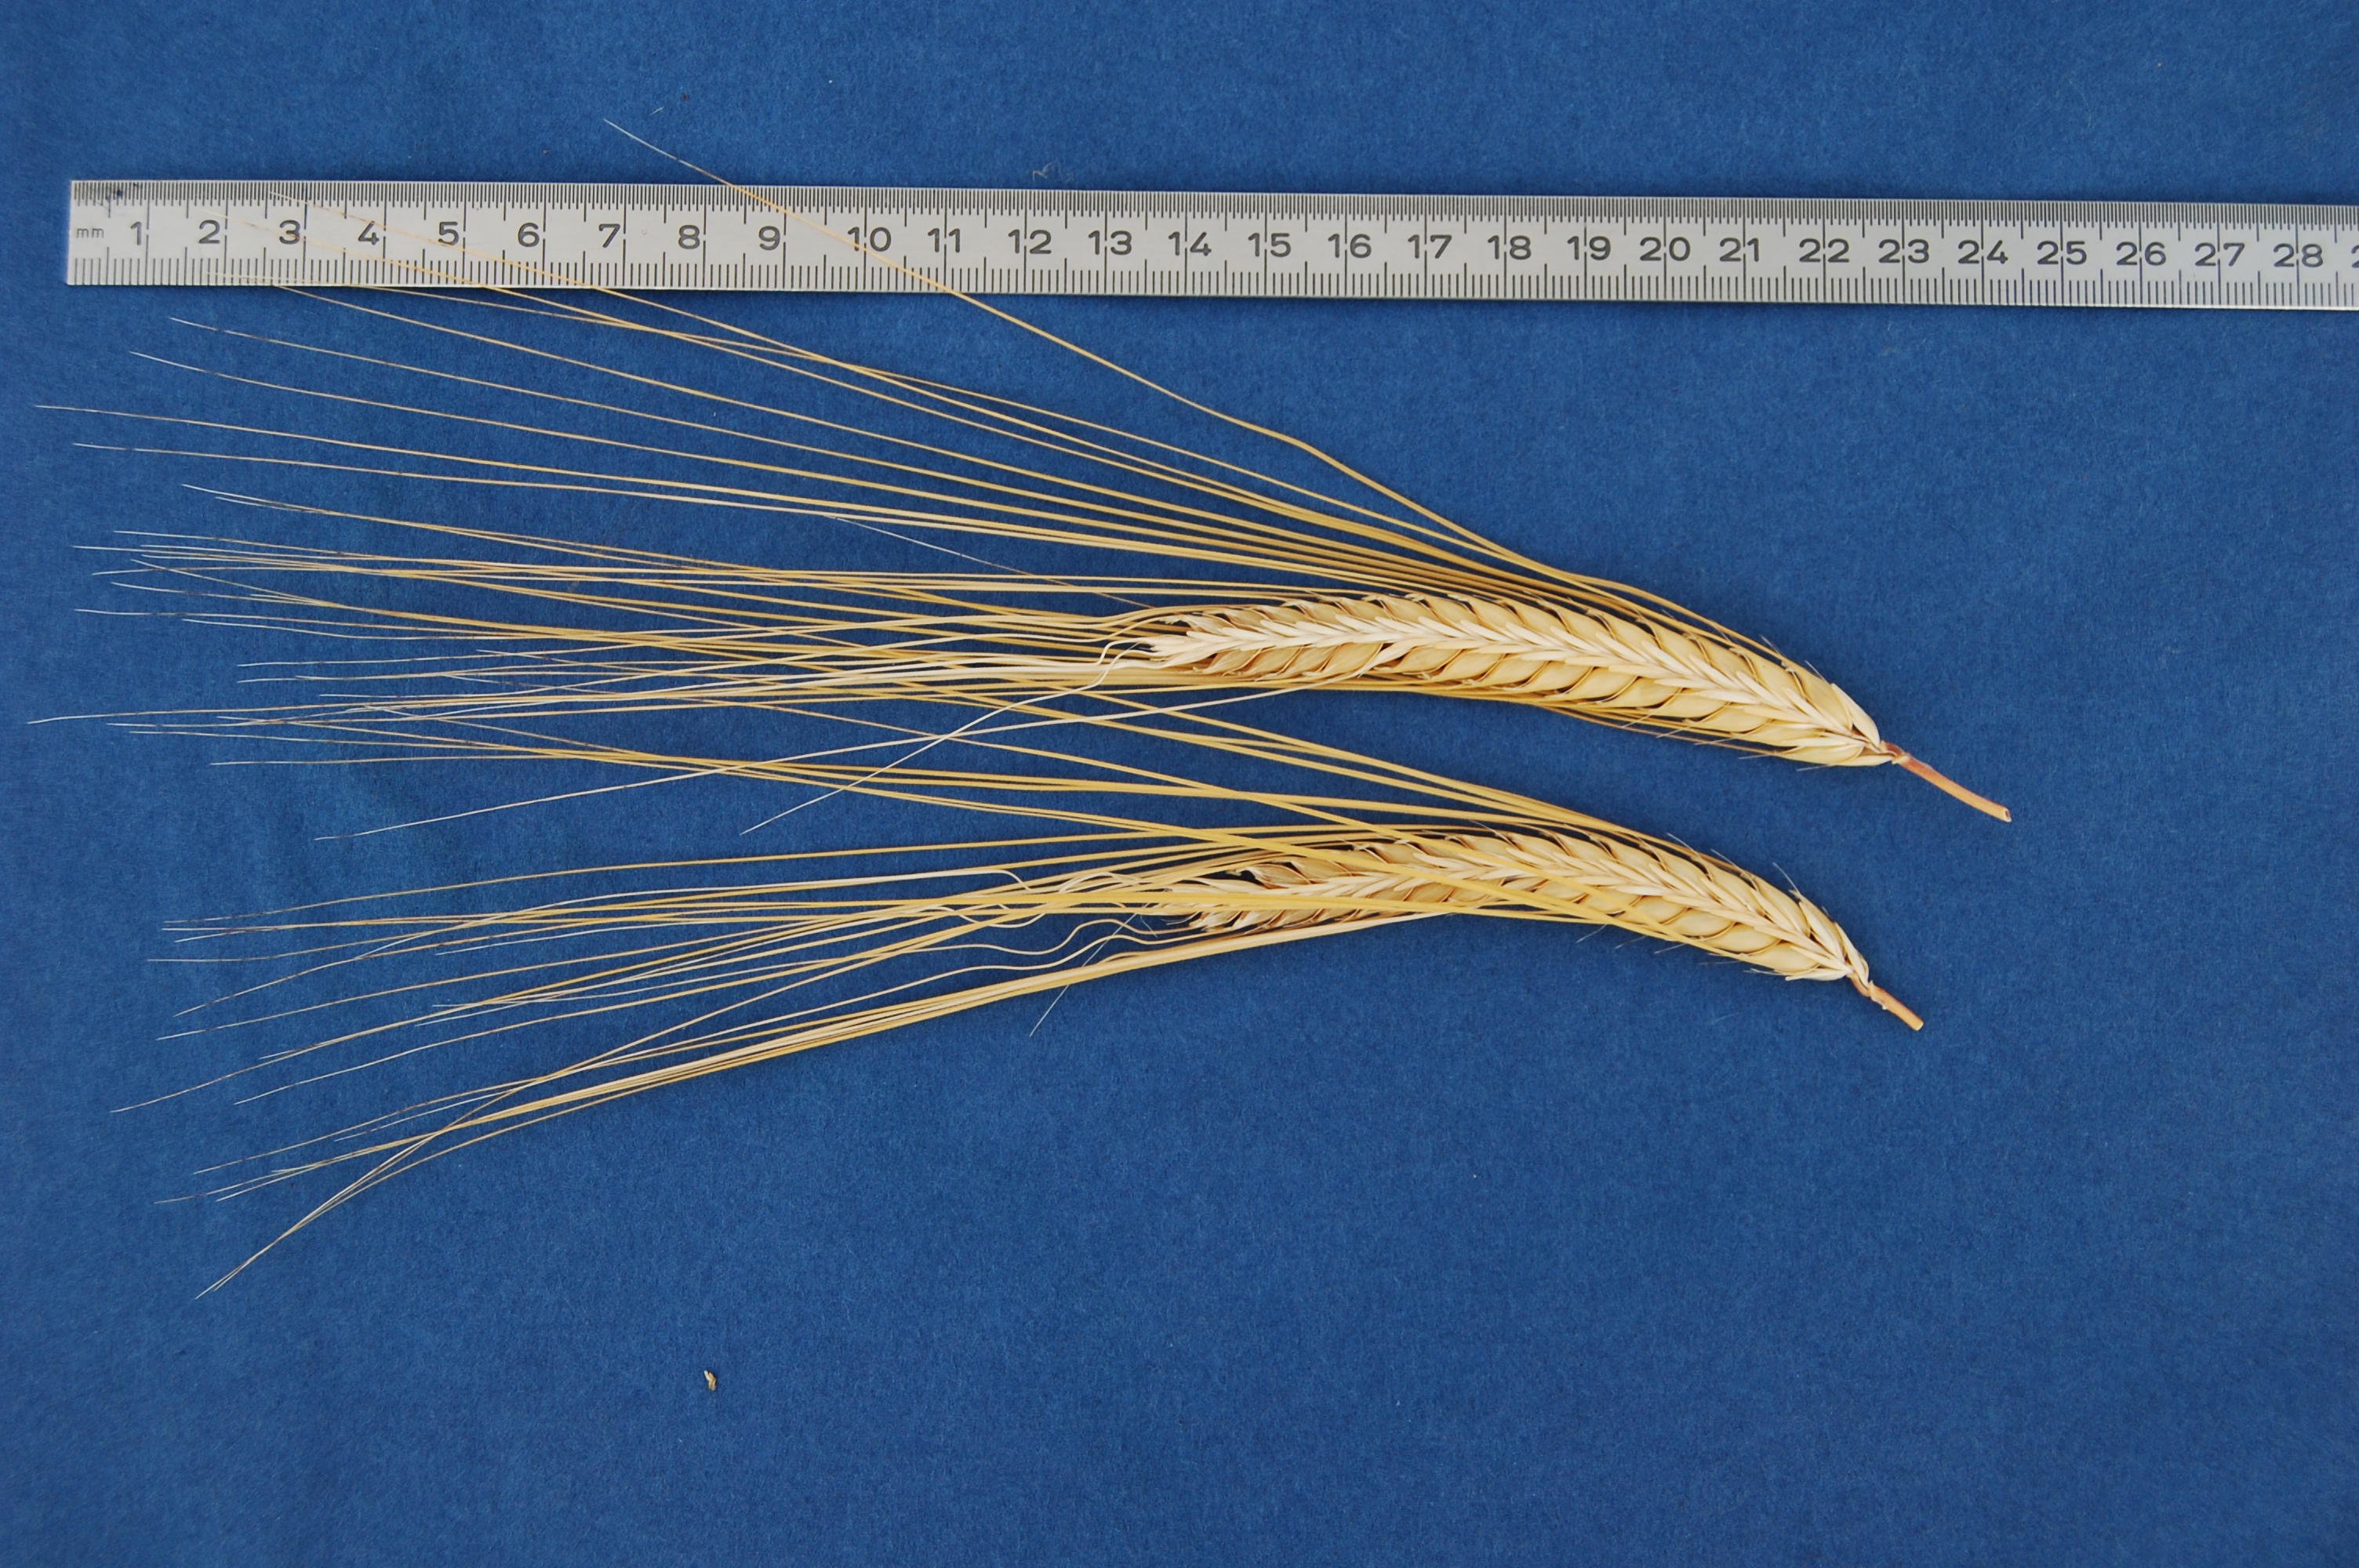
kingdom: Plantae
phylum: Tracheophyta
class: Liliopsida
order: Poales
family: Poaceae
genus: Hordeum
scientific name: Hordeum vulgare
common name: Common barley
